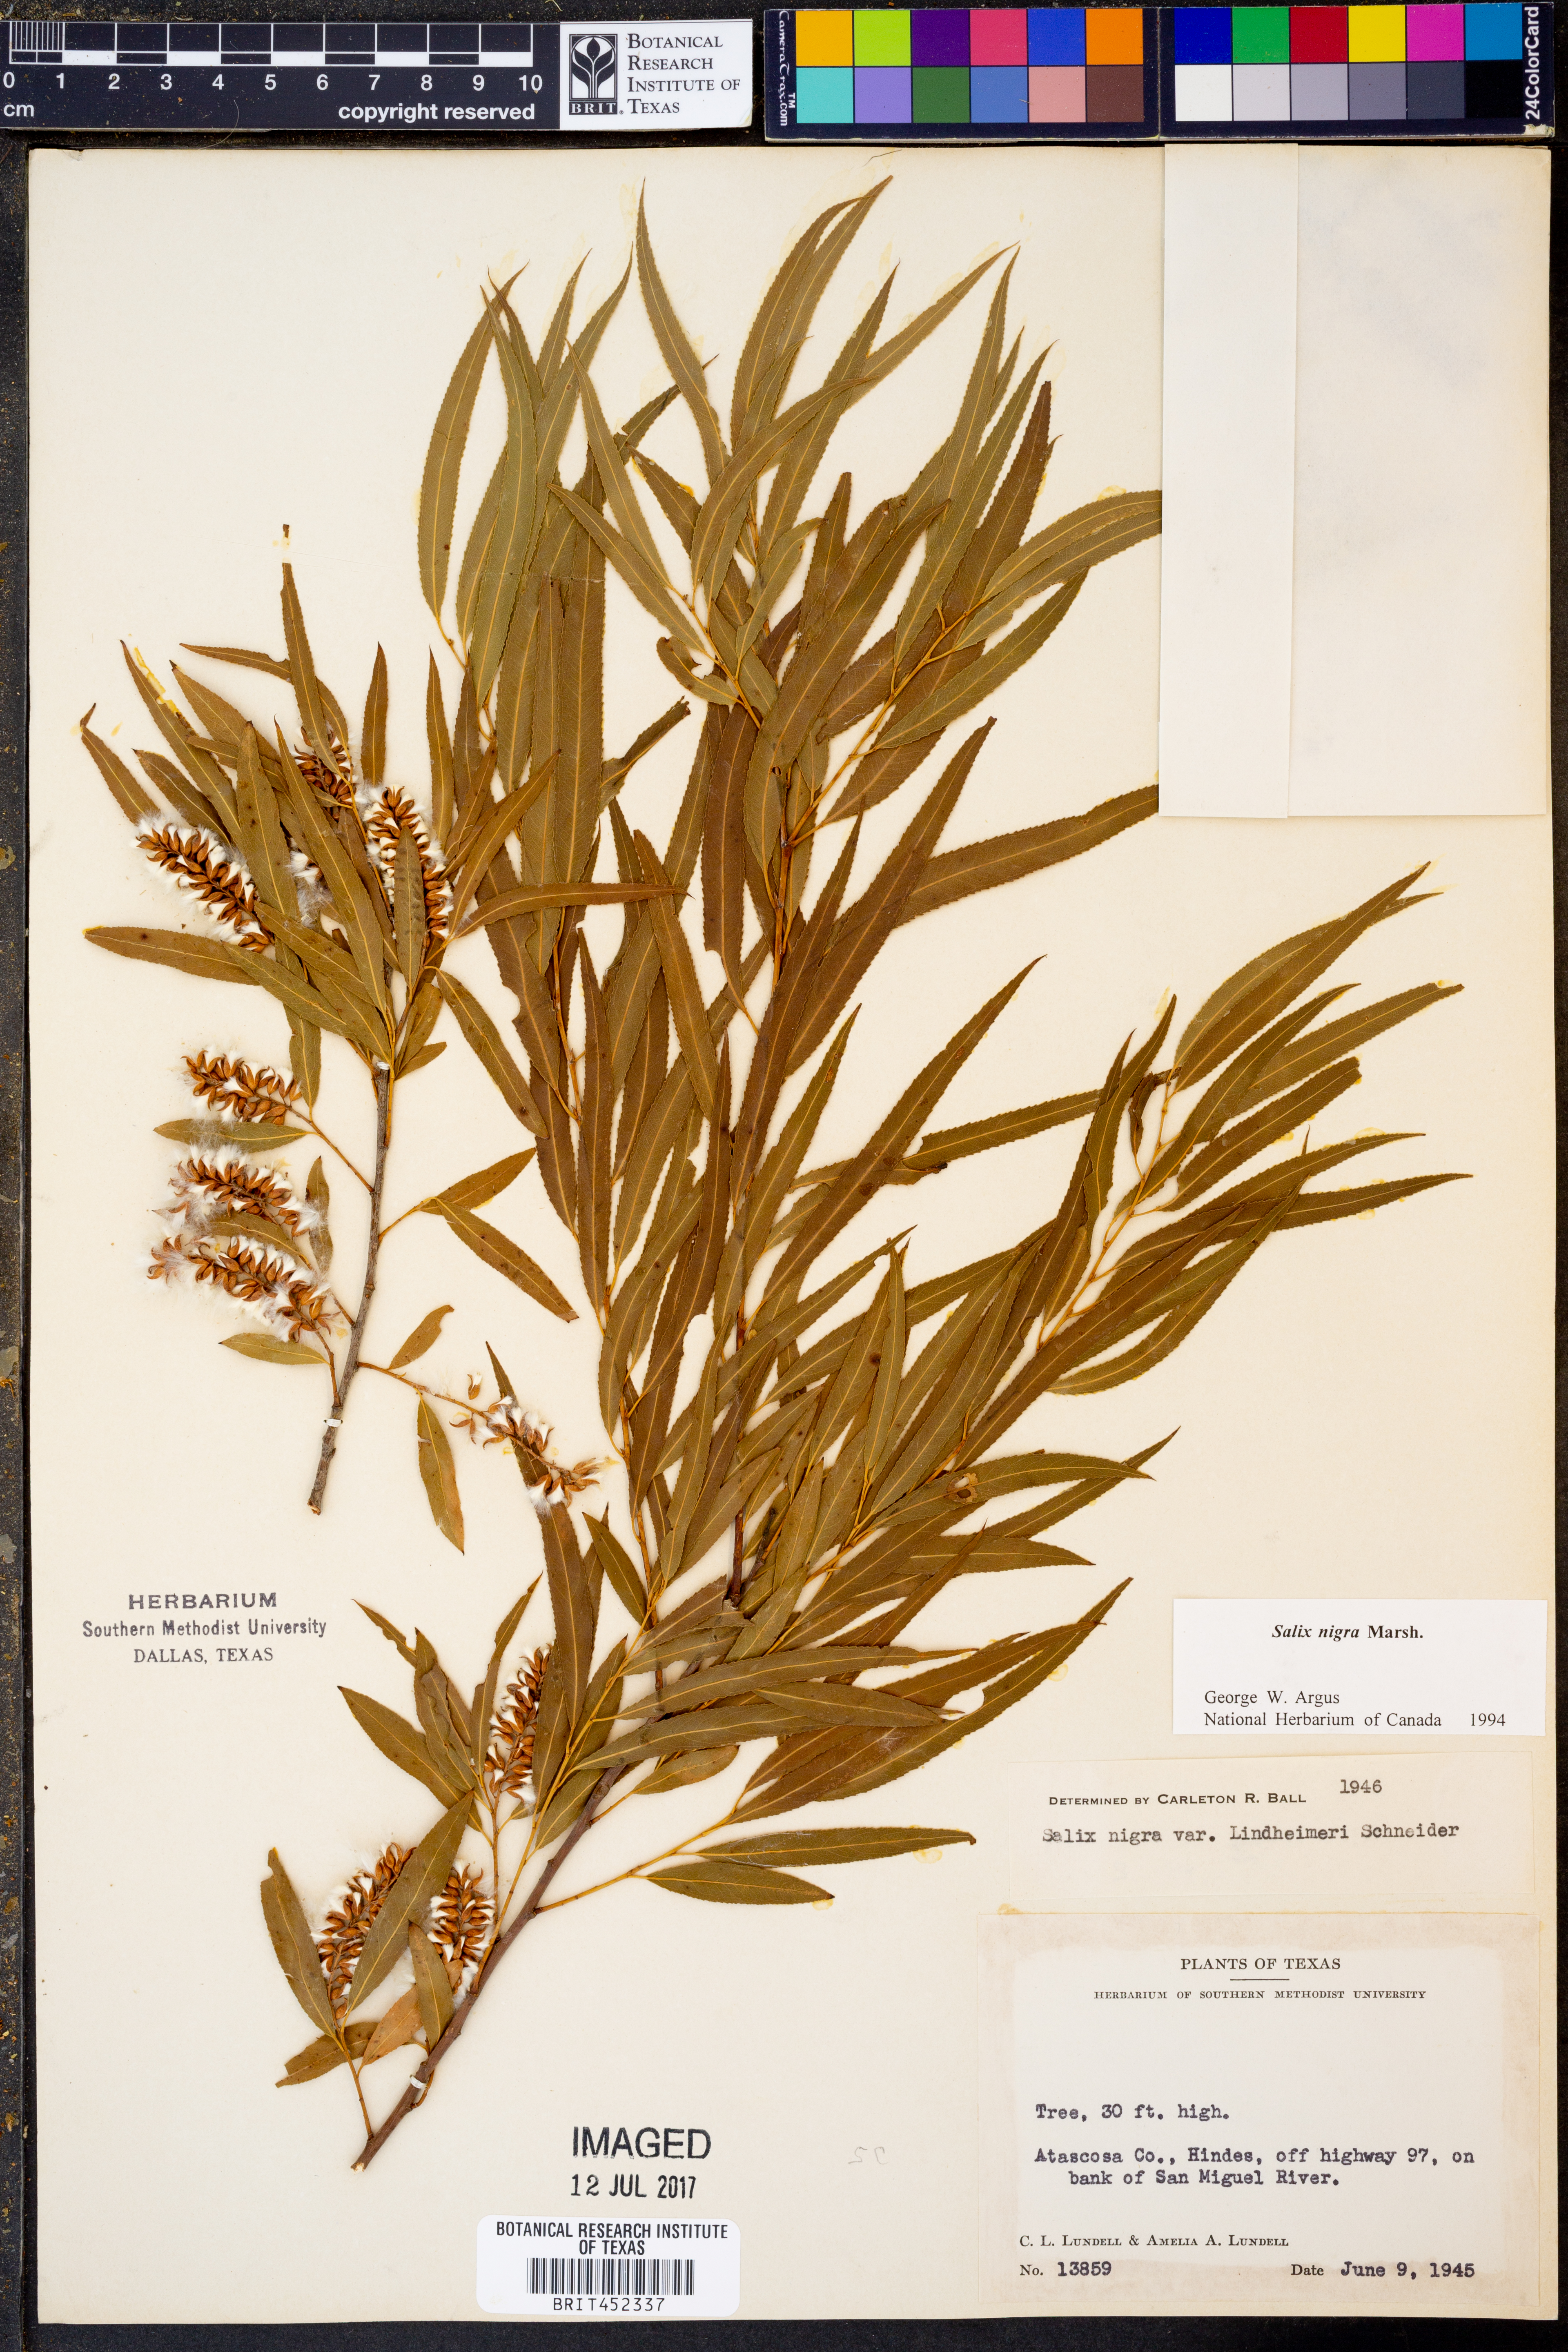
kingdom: Plantae
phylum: Tracheophyta
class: Magnoliopsida
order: Malpighiales
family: Salicaceae
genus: Salix
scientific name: Salix nigra
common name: Black willow
